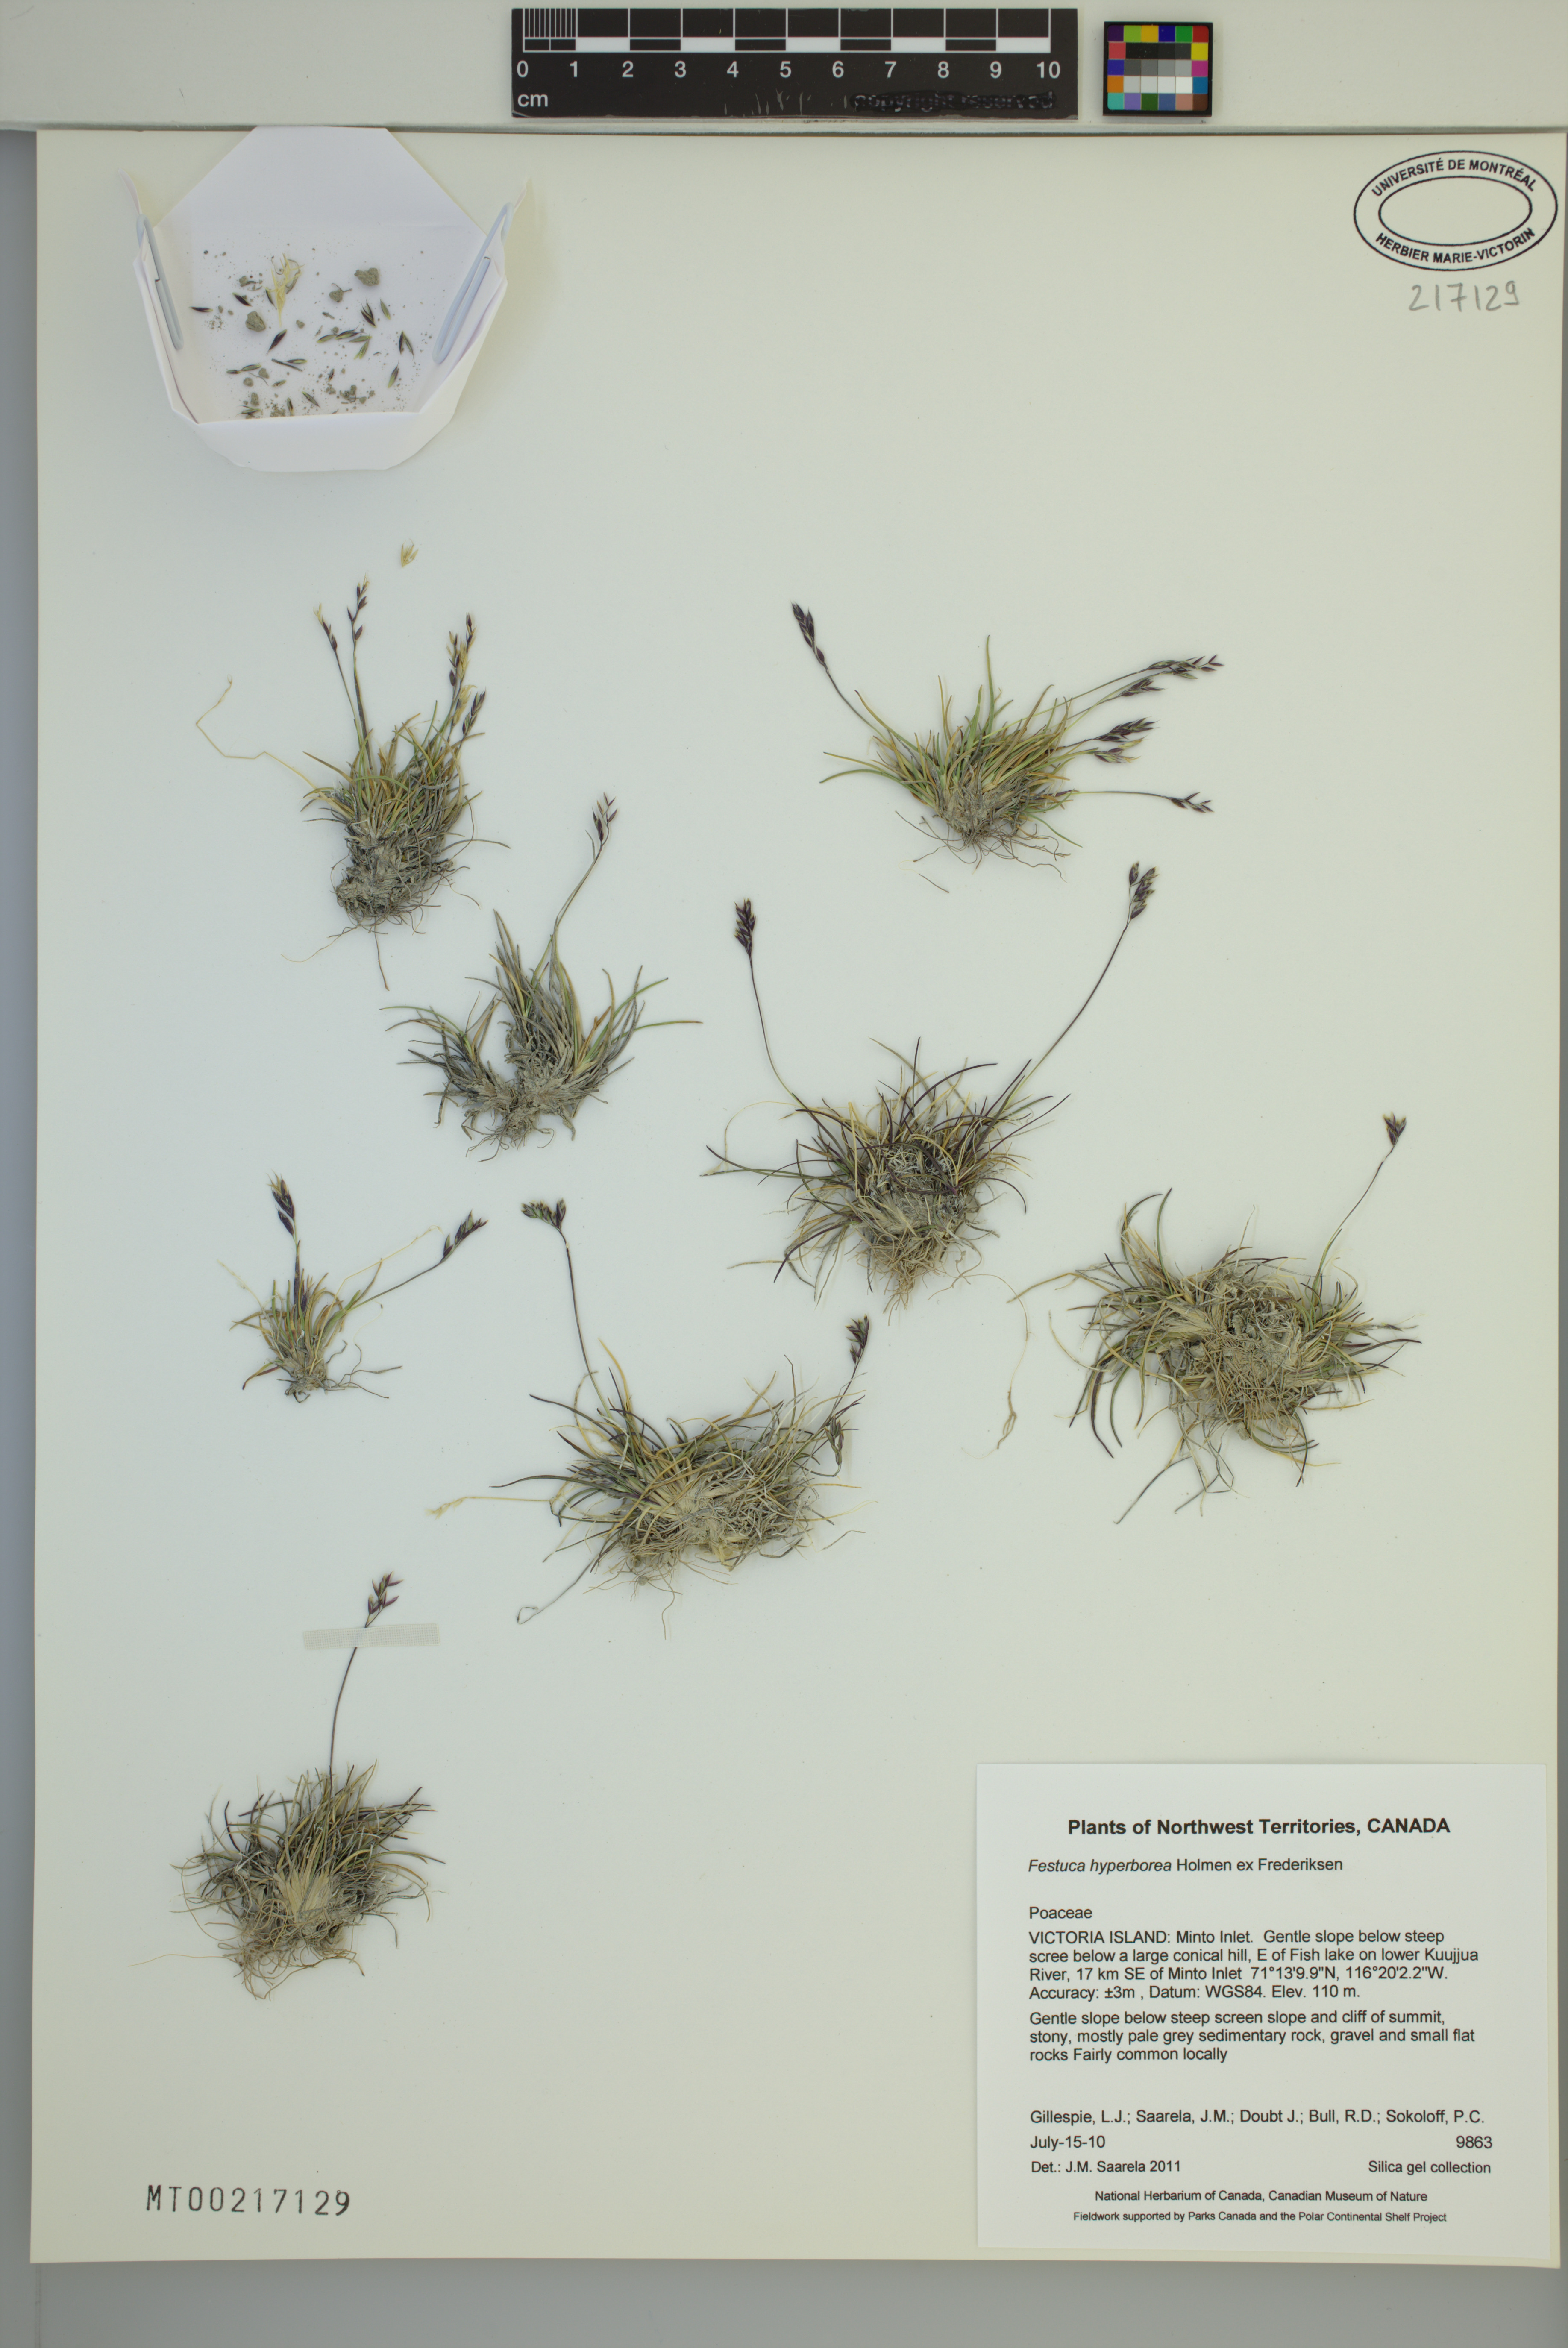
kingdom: Plantae
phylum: Tracheophyta
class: Liliopsida
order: Poales
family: Poaceae
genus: Festuca
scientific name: Festuca hyperborea
